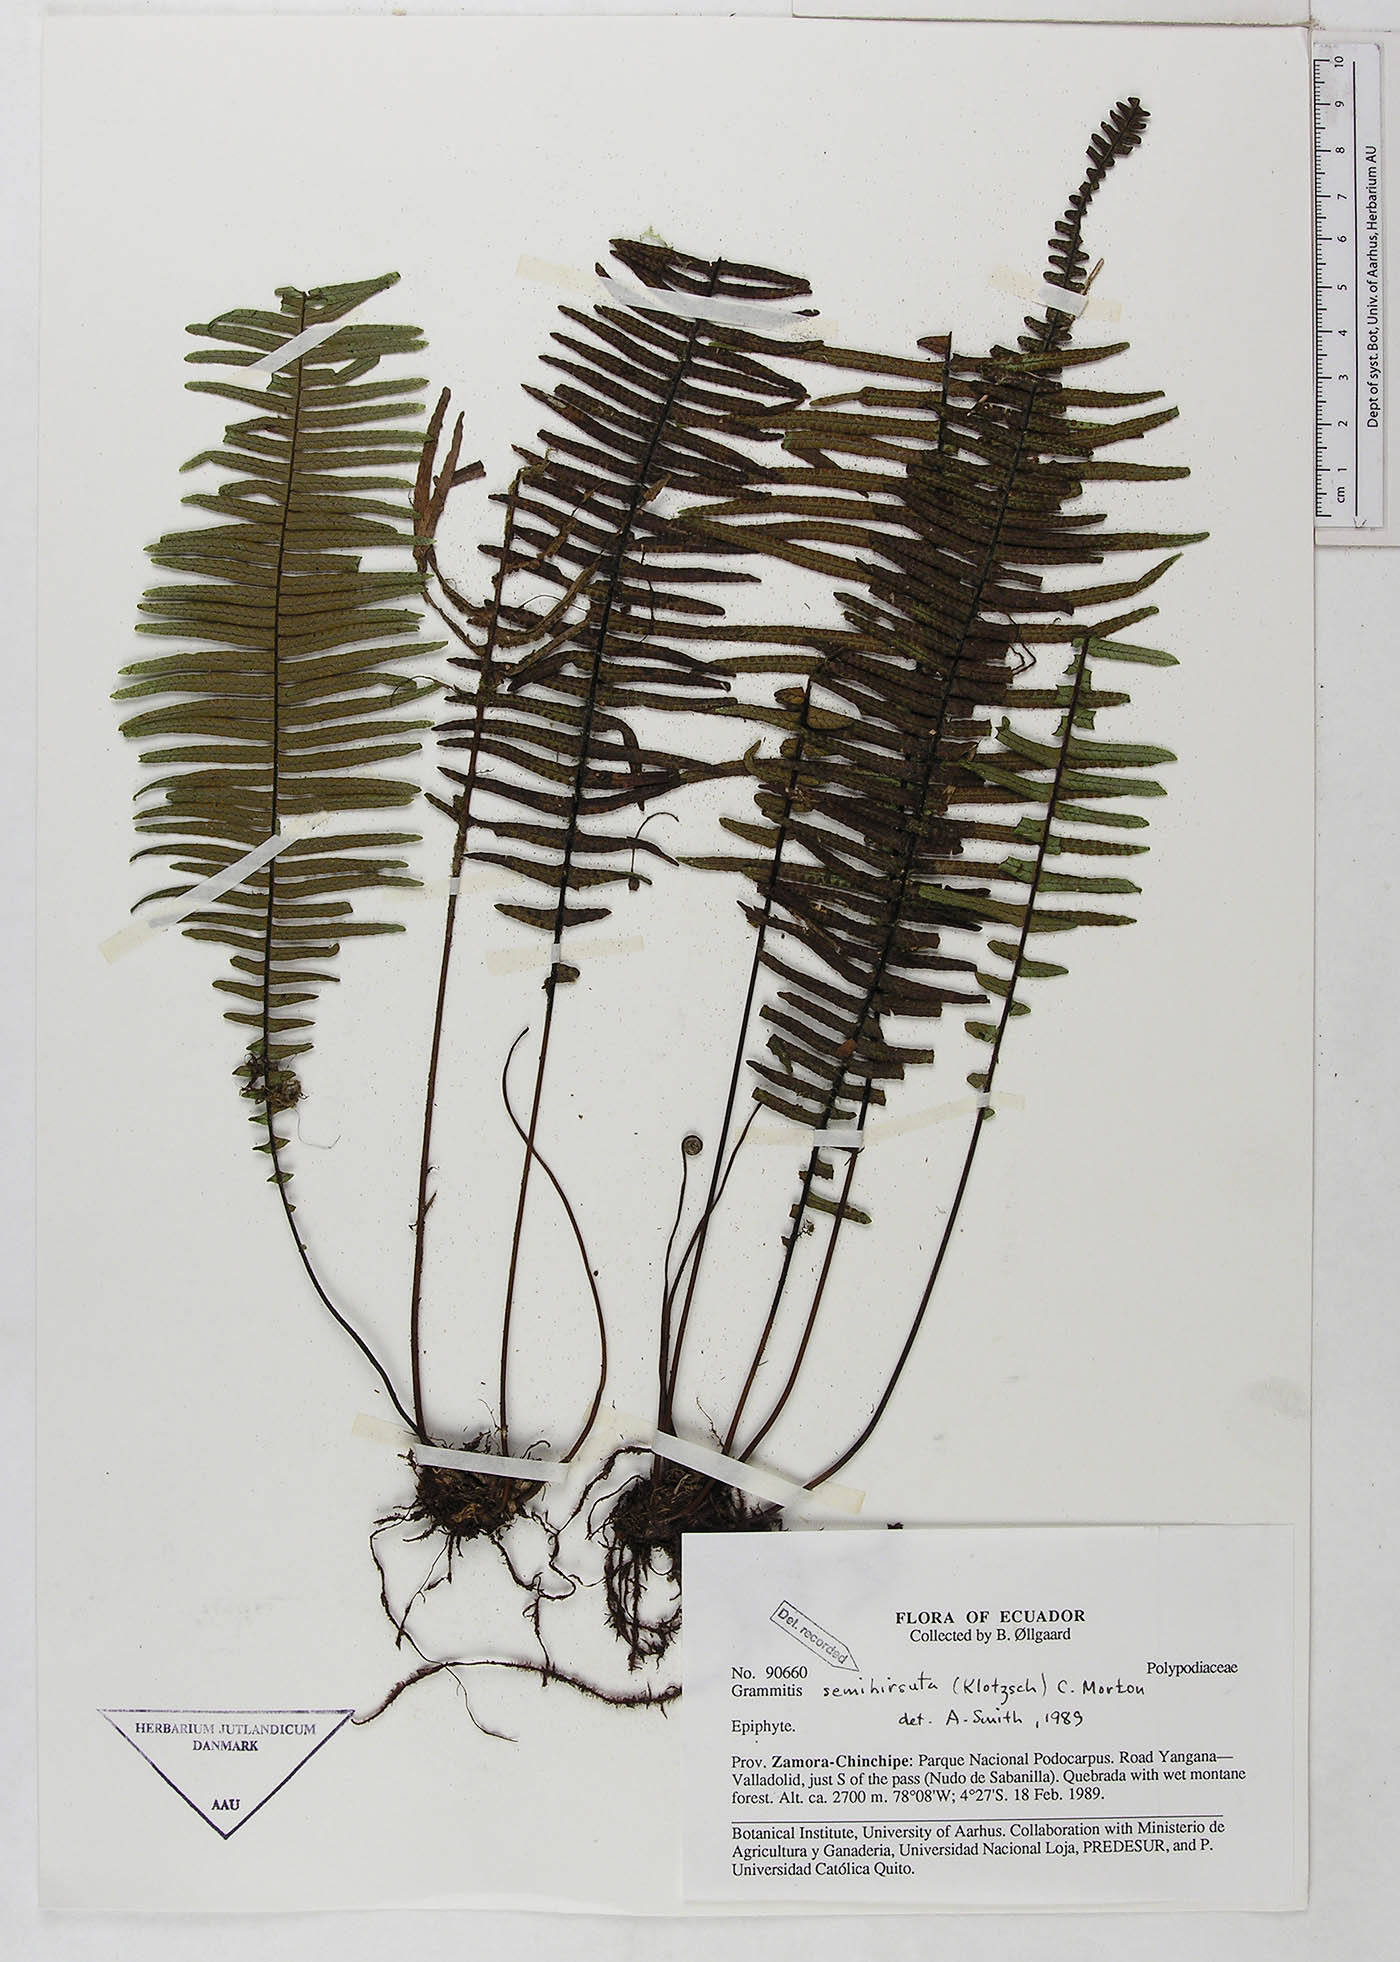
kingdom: Plantae
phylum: Tracheophyta
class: Polypodiopsida
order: Polypodiales
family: Polypodiaceae
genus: Mycopteris
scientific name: Mycopteris semihirsuta
